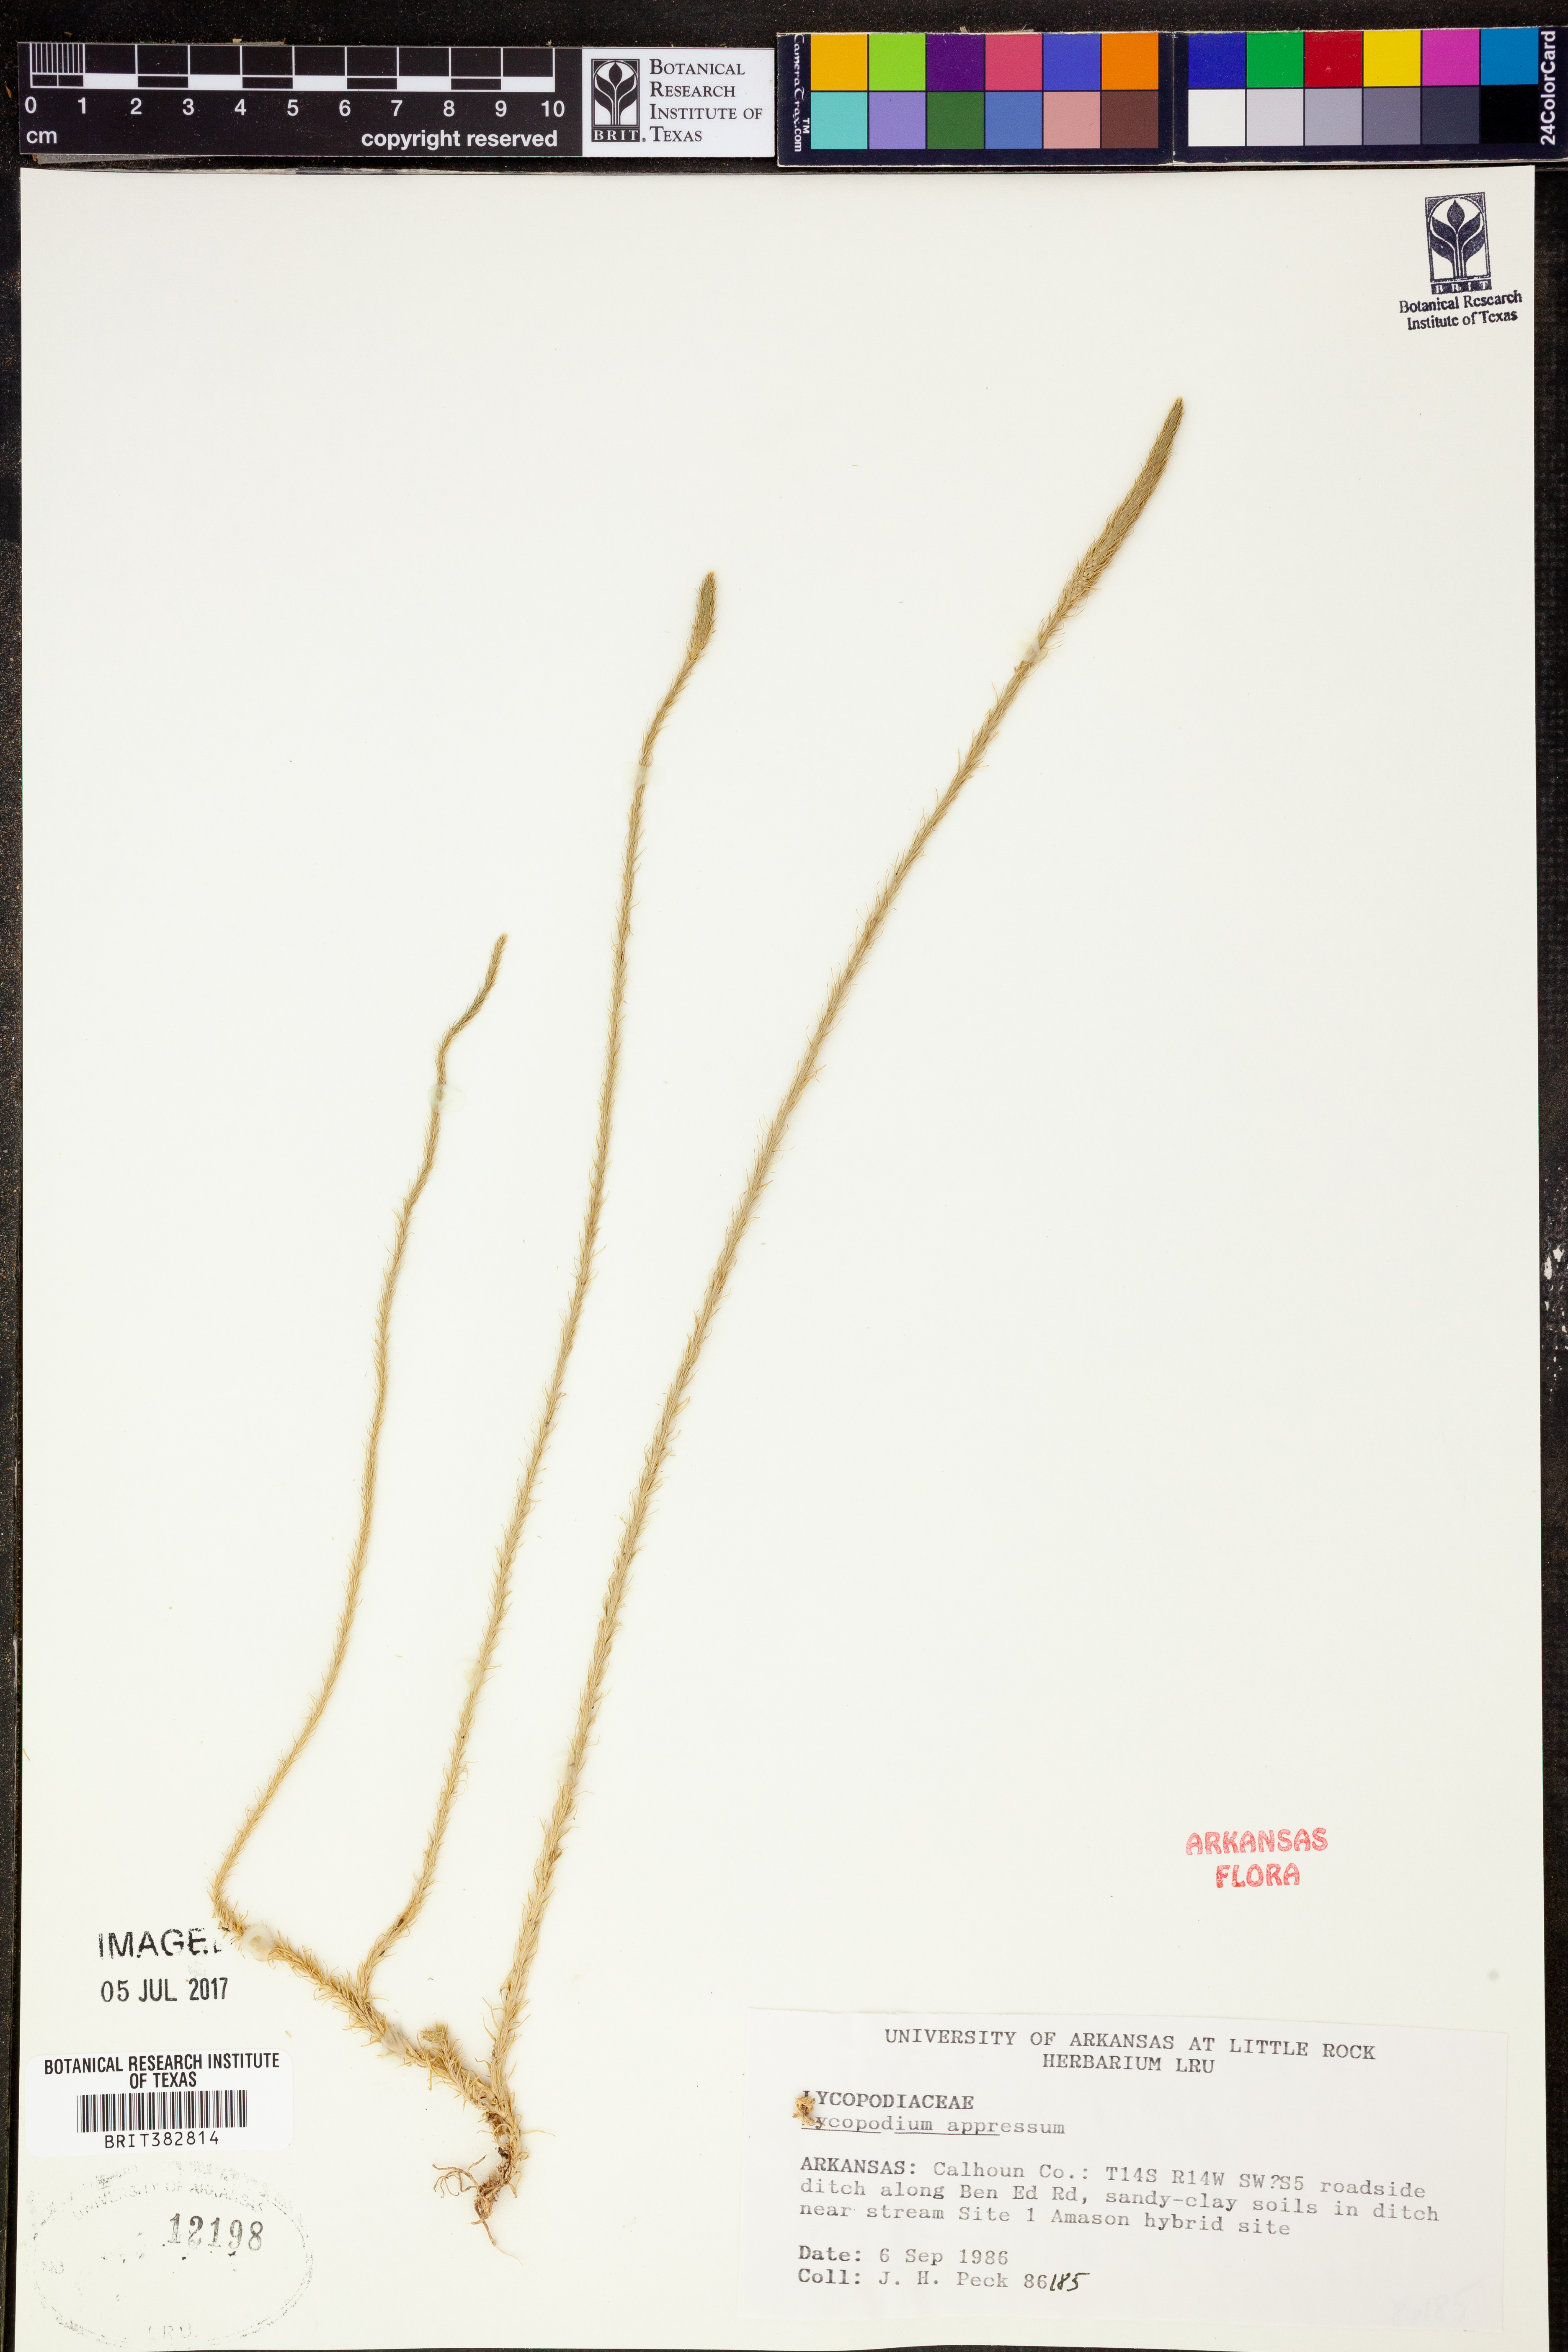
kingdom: Plantae
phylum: Tracheophyta
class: Lycopodiopsida
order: Lycopodiales
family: Lycopodiaceae
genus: Lycopodiella
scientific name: Lycopodiella appressa
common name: Appressed bog clubmoss
